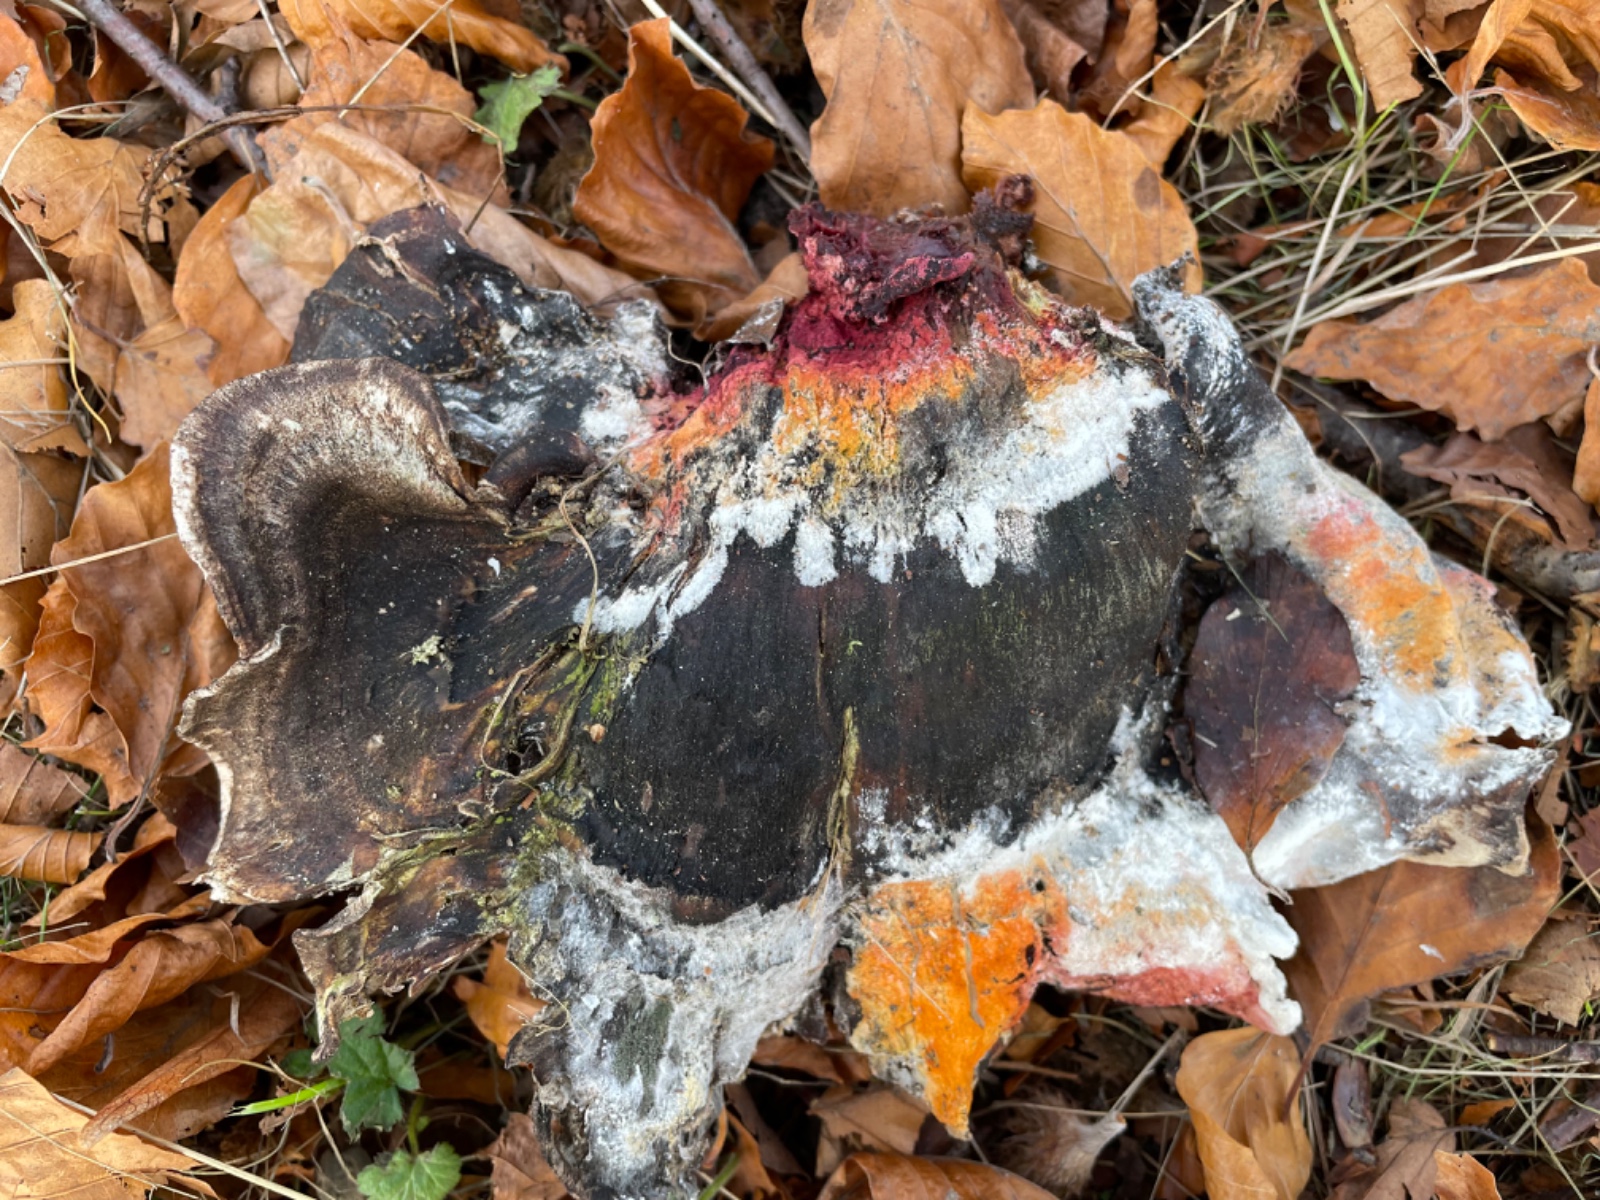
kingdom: Fungi
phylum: Ascomycota
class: Sordariomycetes
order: Hypocreales
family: Hypocreaceae
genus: Hypomyces
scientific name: Hypomyces aurantius
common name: almindelig snylteskorpe
